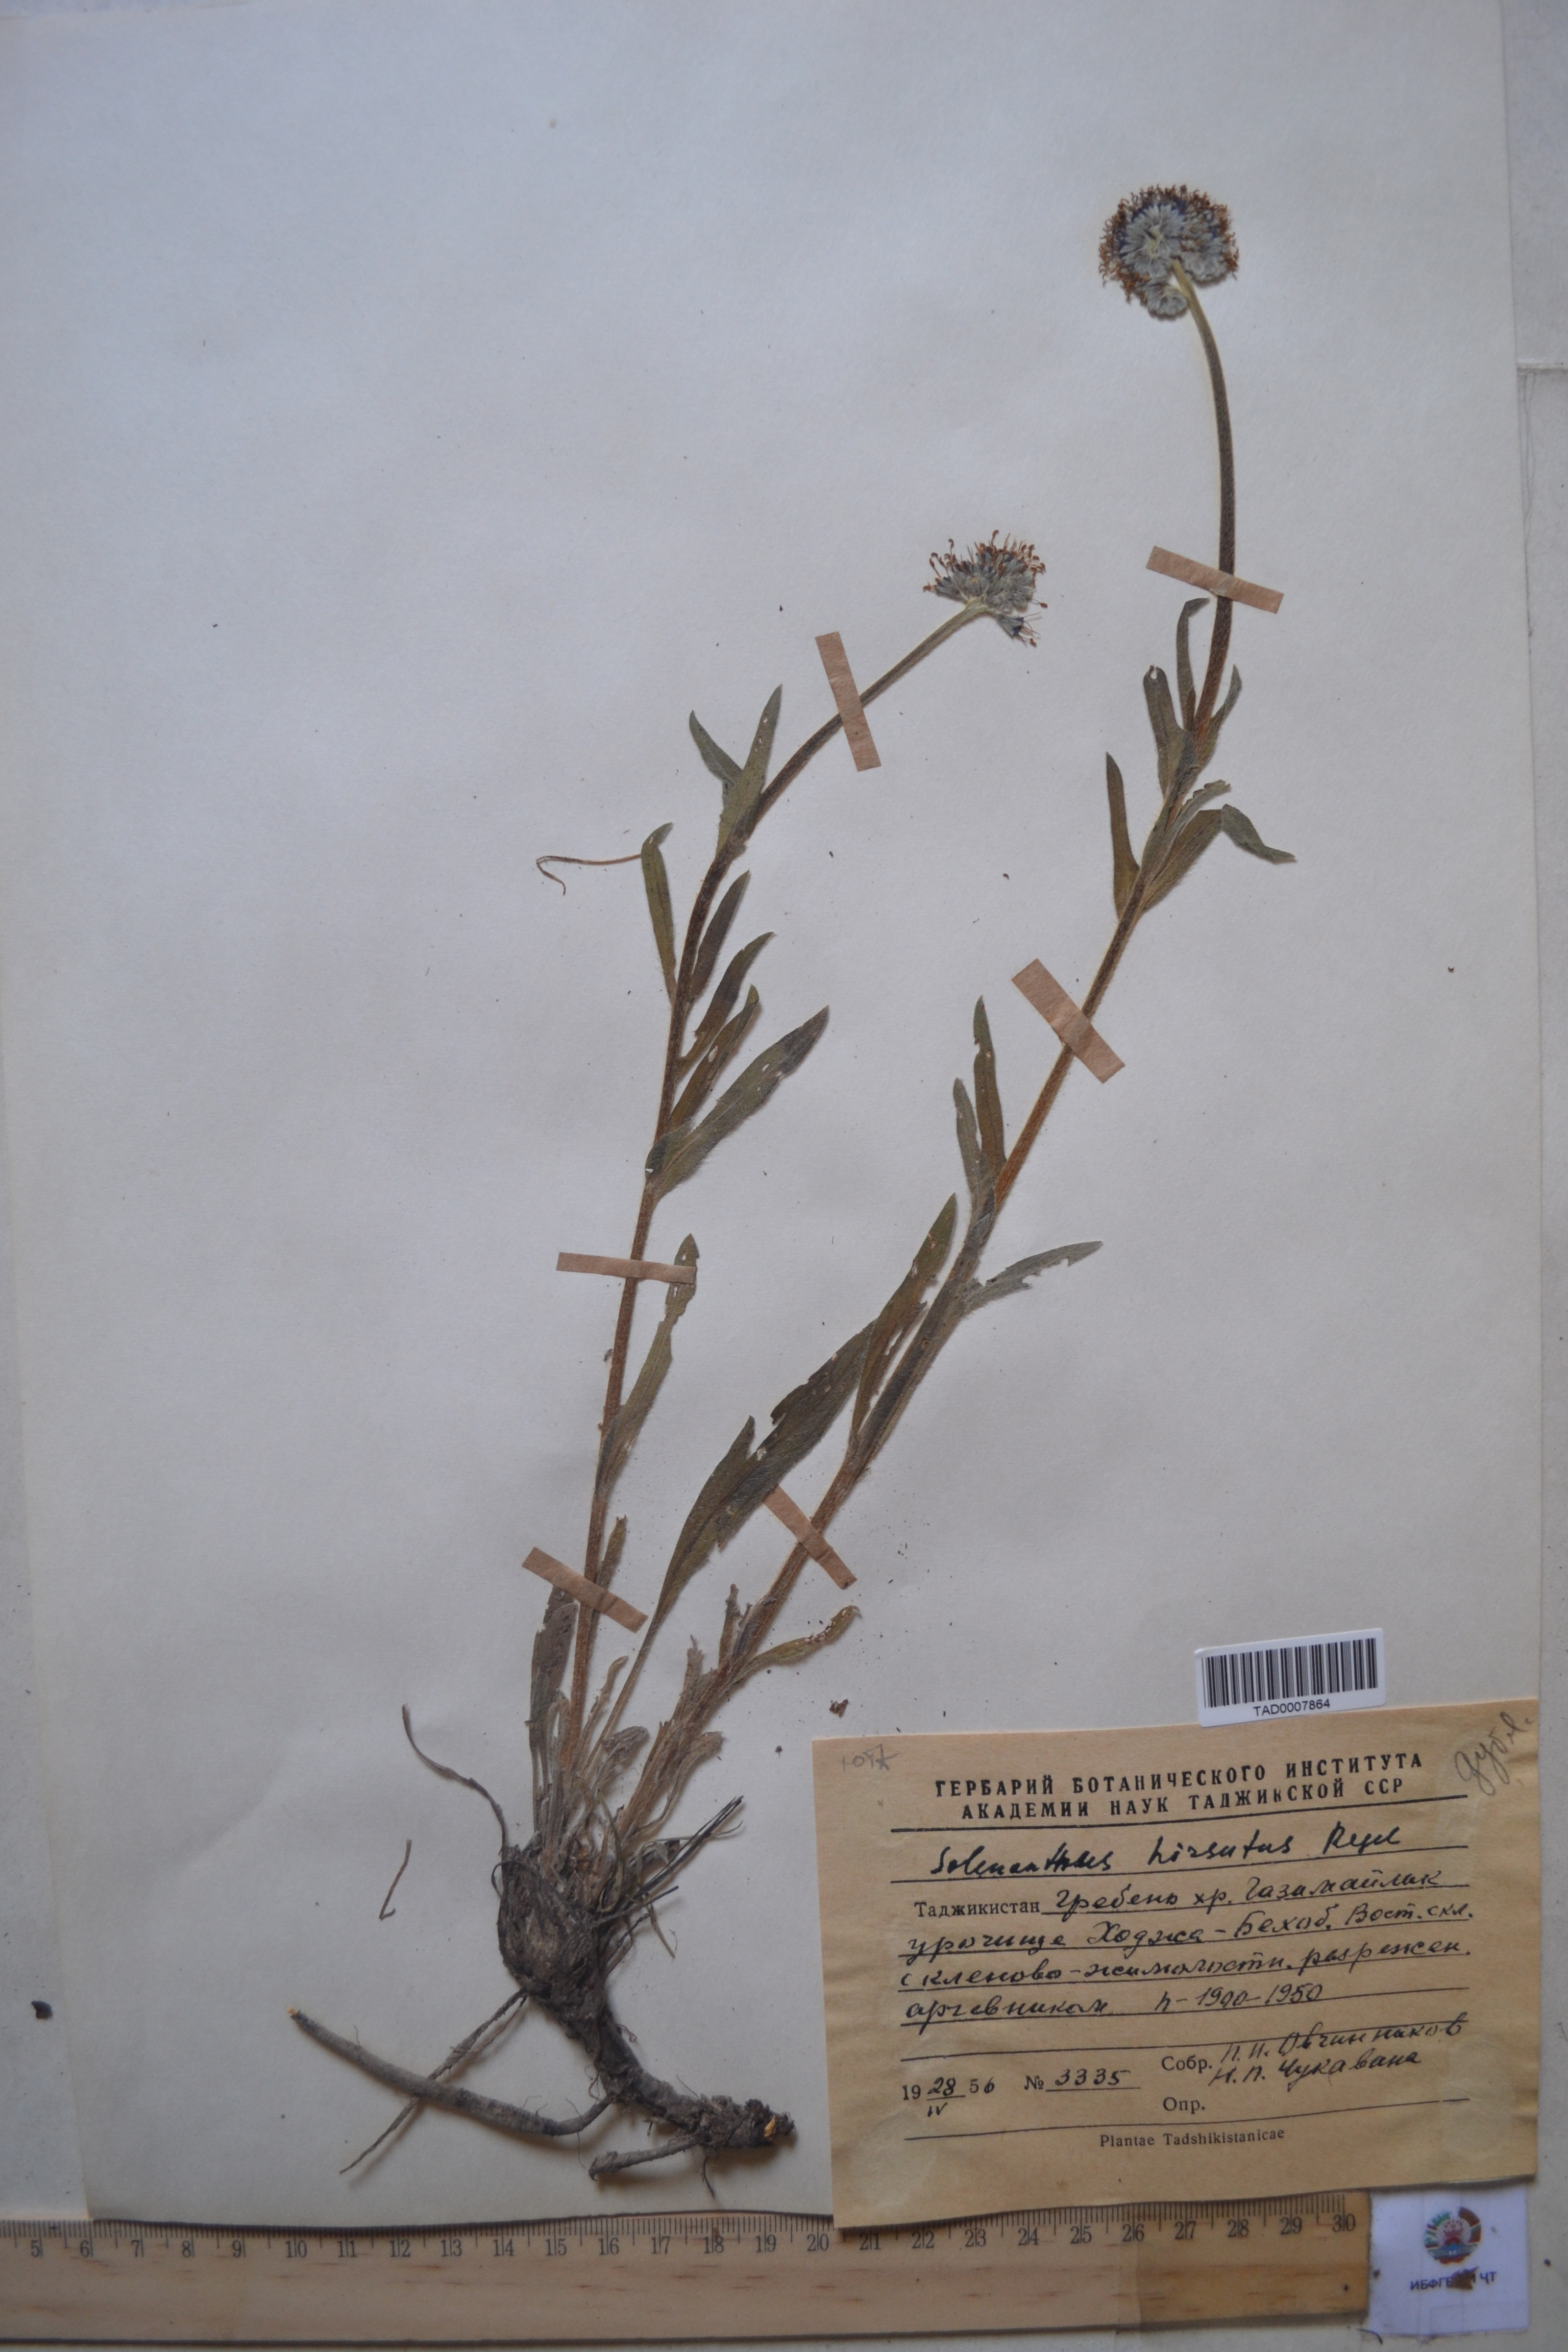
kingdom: Plantae
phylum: Tracheophyta
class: Magnoliopsida
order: Boraginales
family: Boraginaceae
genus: Solenanthus
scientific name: Solenanthus hirsutus
